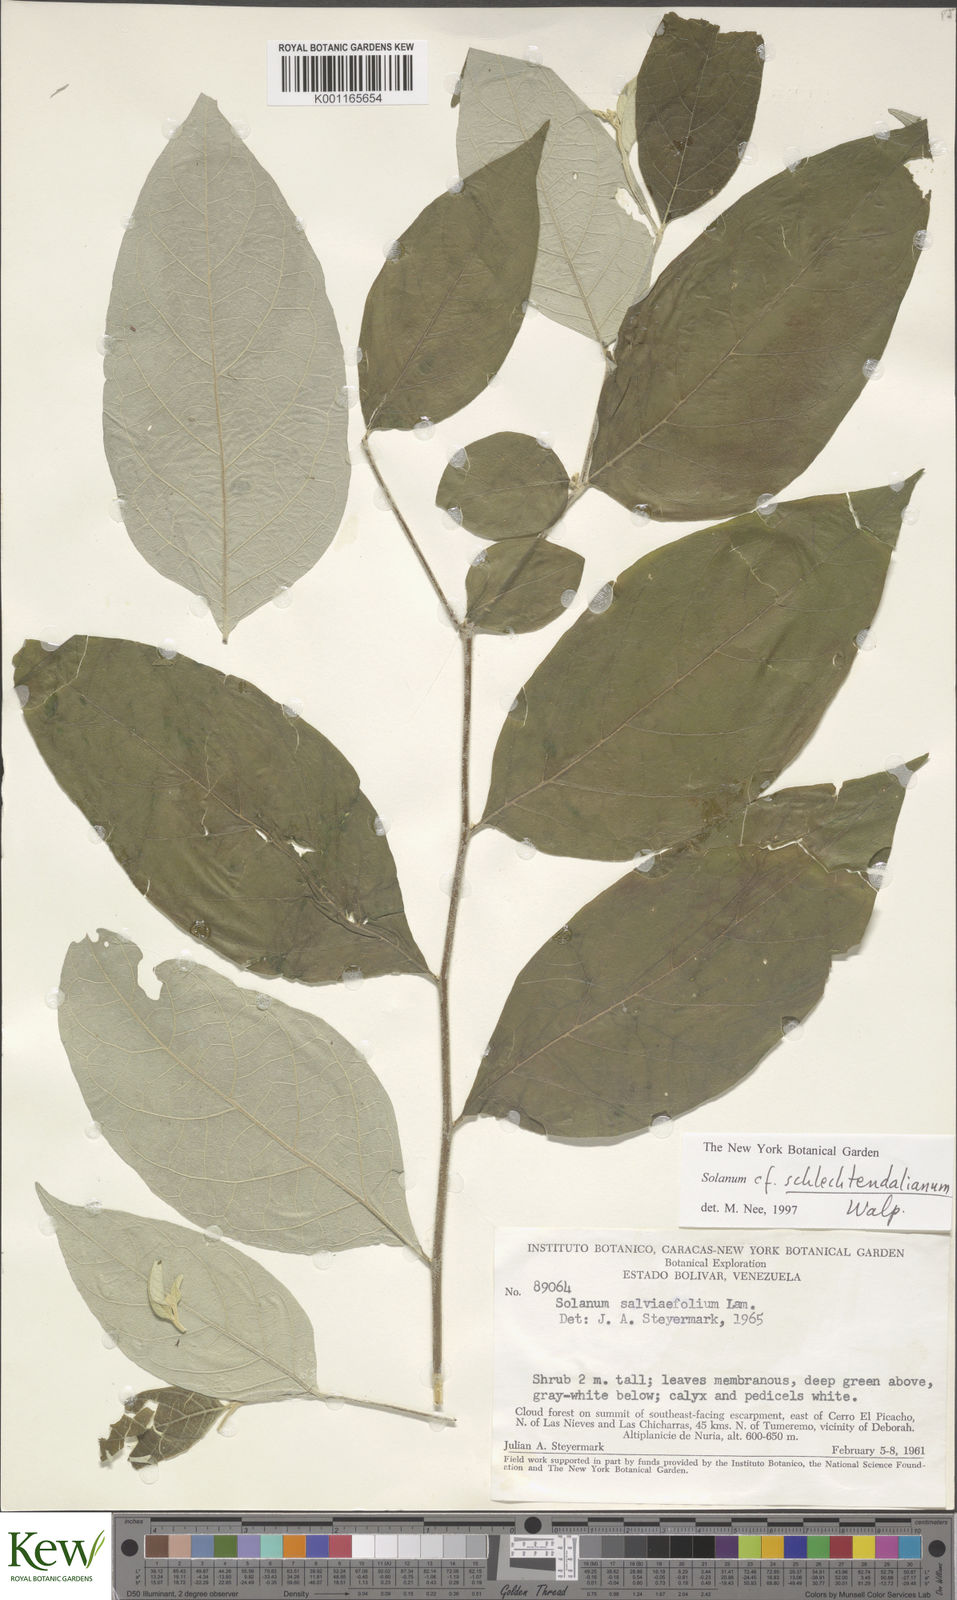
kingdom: Plantae
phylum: Tracheophyta
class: Magnoliopsida
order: Solanales
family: Solanaceae
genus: Solanum
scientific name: Solanum schlechtendalianum
